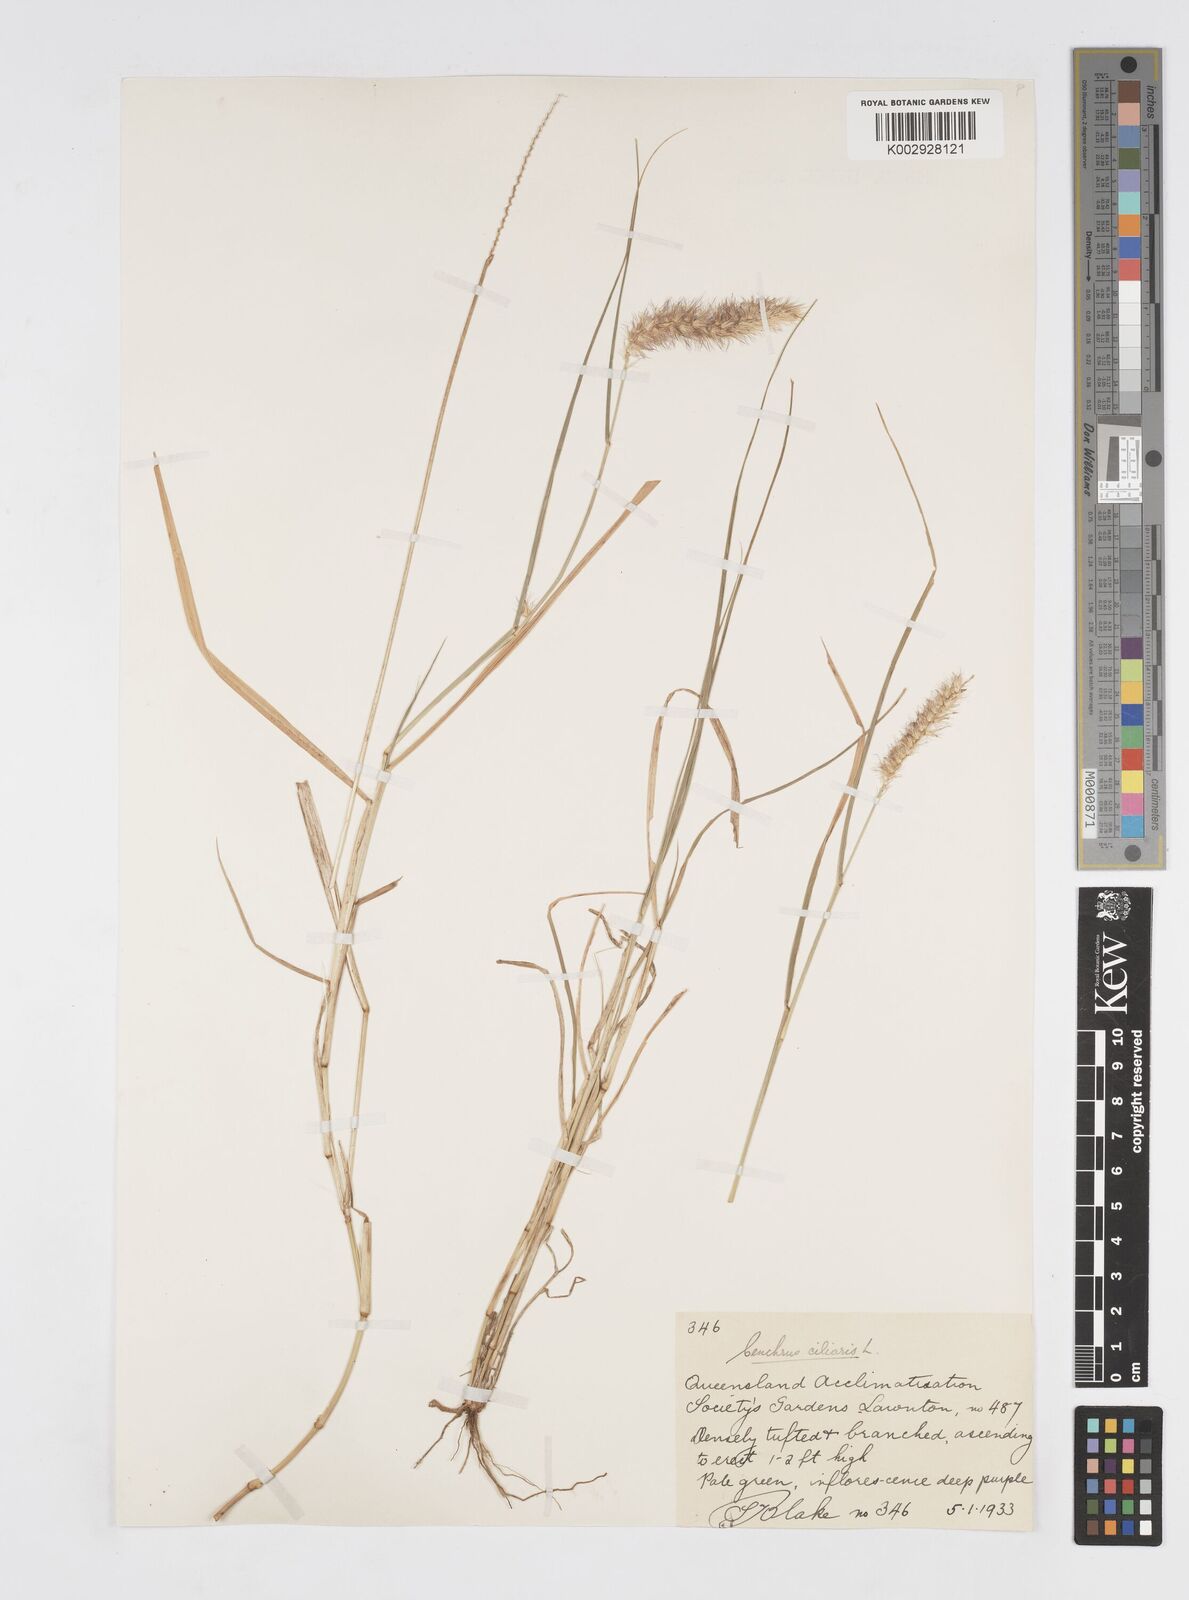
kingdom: Plantae
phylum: Tracheophyta
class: Liliopsida
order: Poales
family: Poaceae
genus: Cenchrus
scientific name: Cenchrus ciliaris
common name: Buffelgrass
